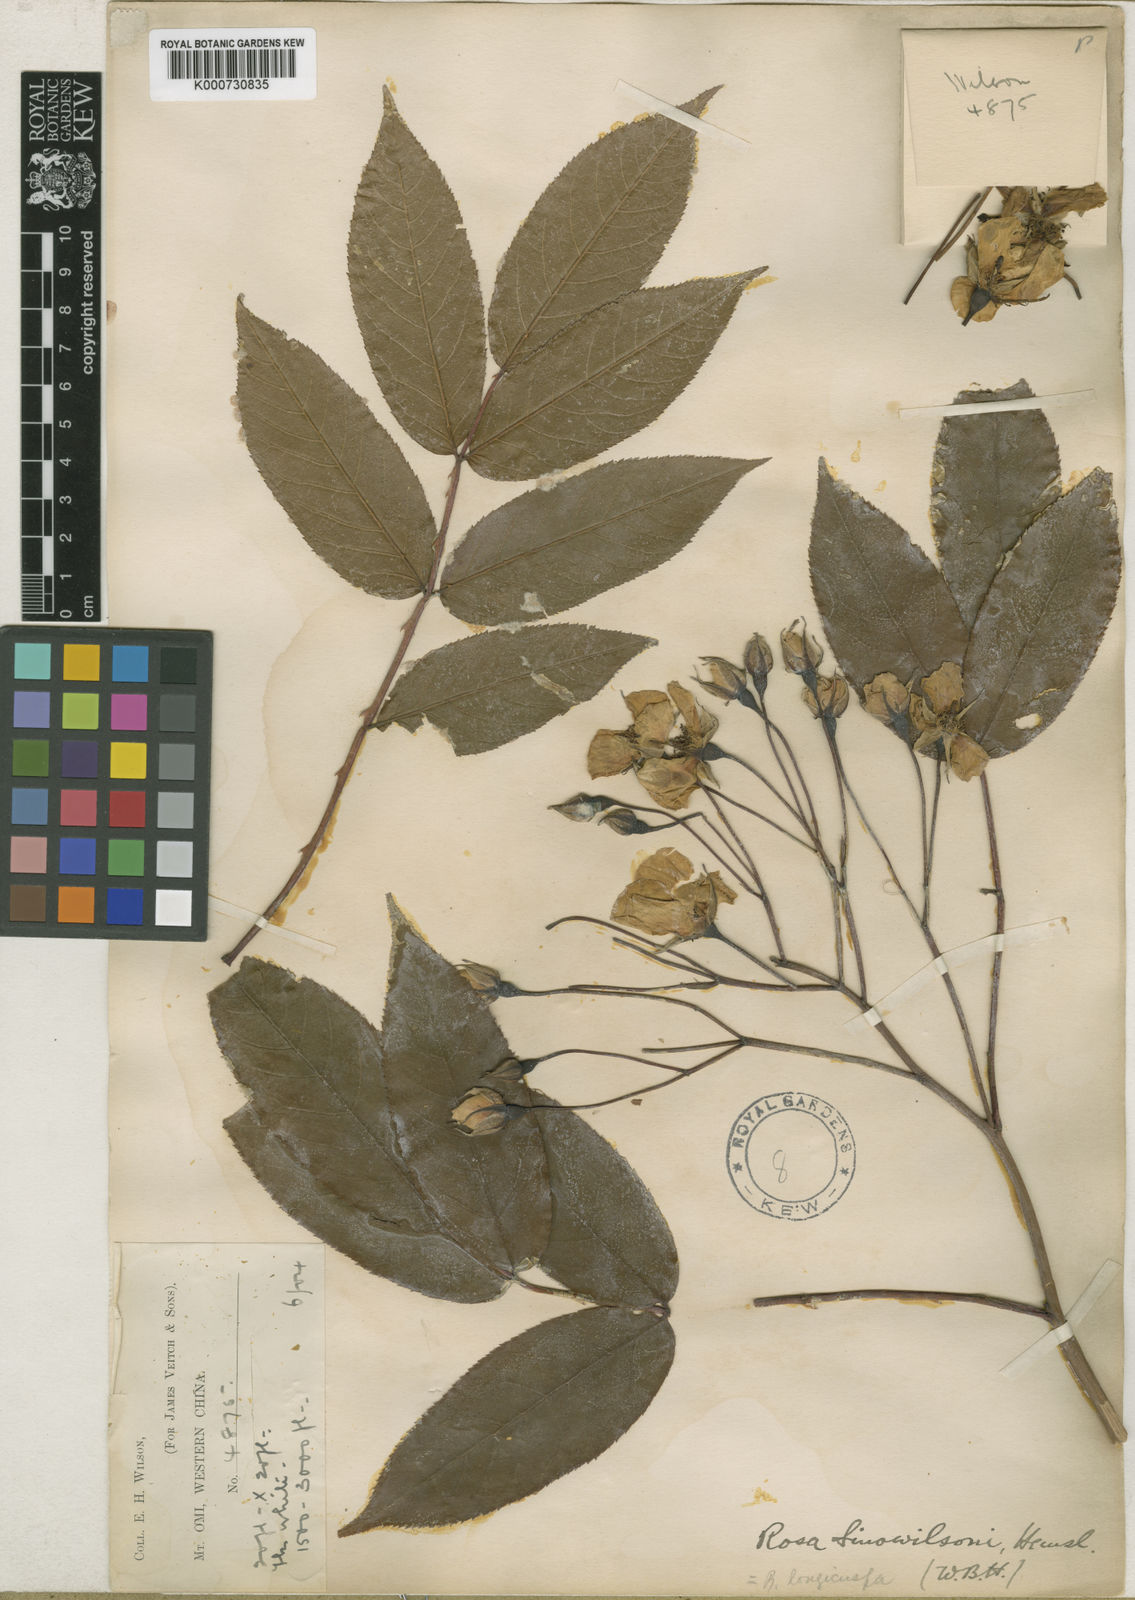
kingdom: Plantae
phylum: Tracheophyta
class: Magnoliopsida
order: Rosales
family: Rosaceae
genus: Rosa
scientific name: Rosa longicuspis
